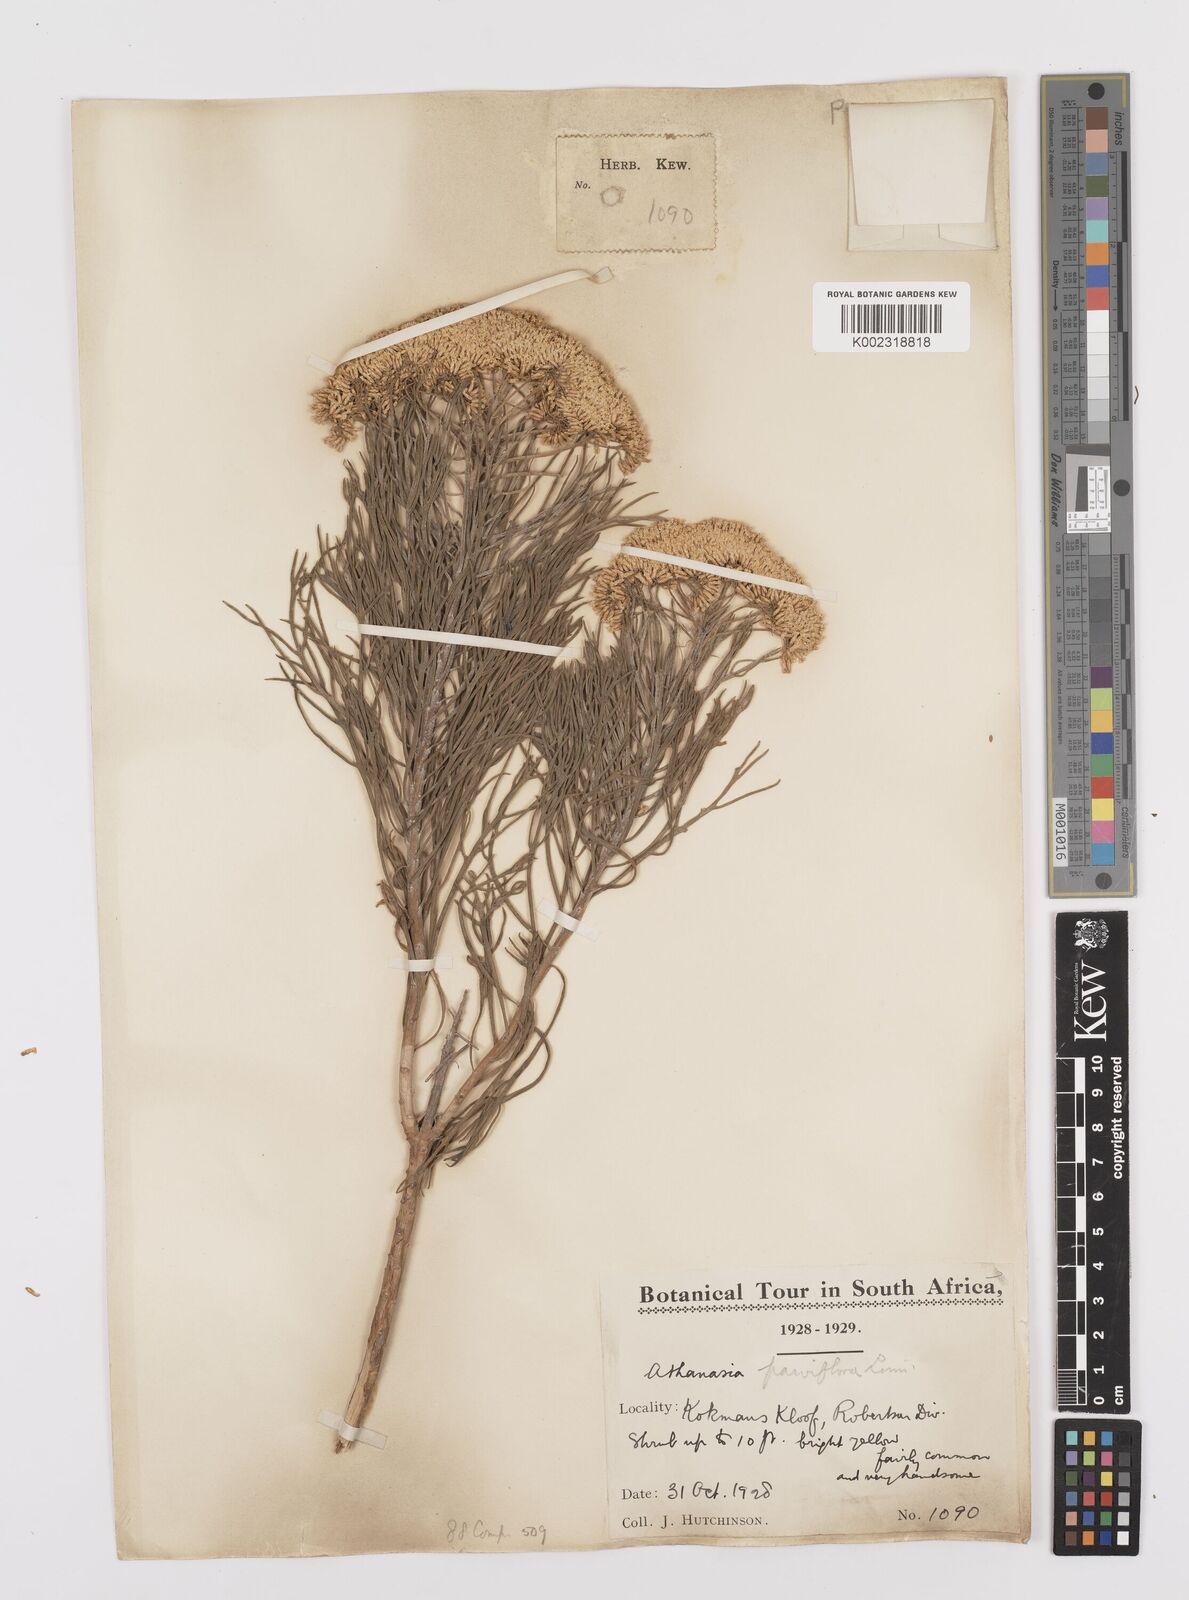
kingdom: Plantae
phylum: Tracheophyta
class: Magnoliopsida
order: Asterales
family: Asteraceae
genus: Hymenolepis
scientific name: Hymenolepis crithmifolia
